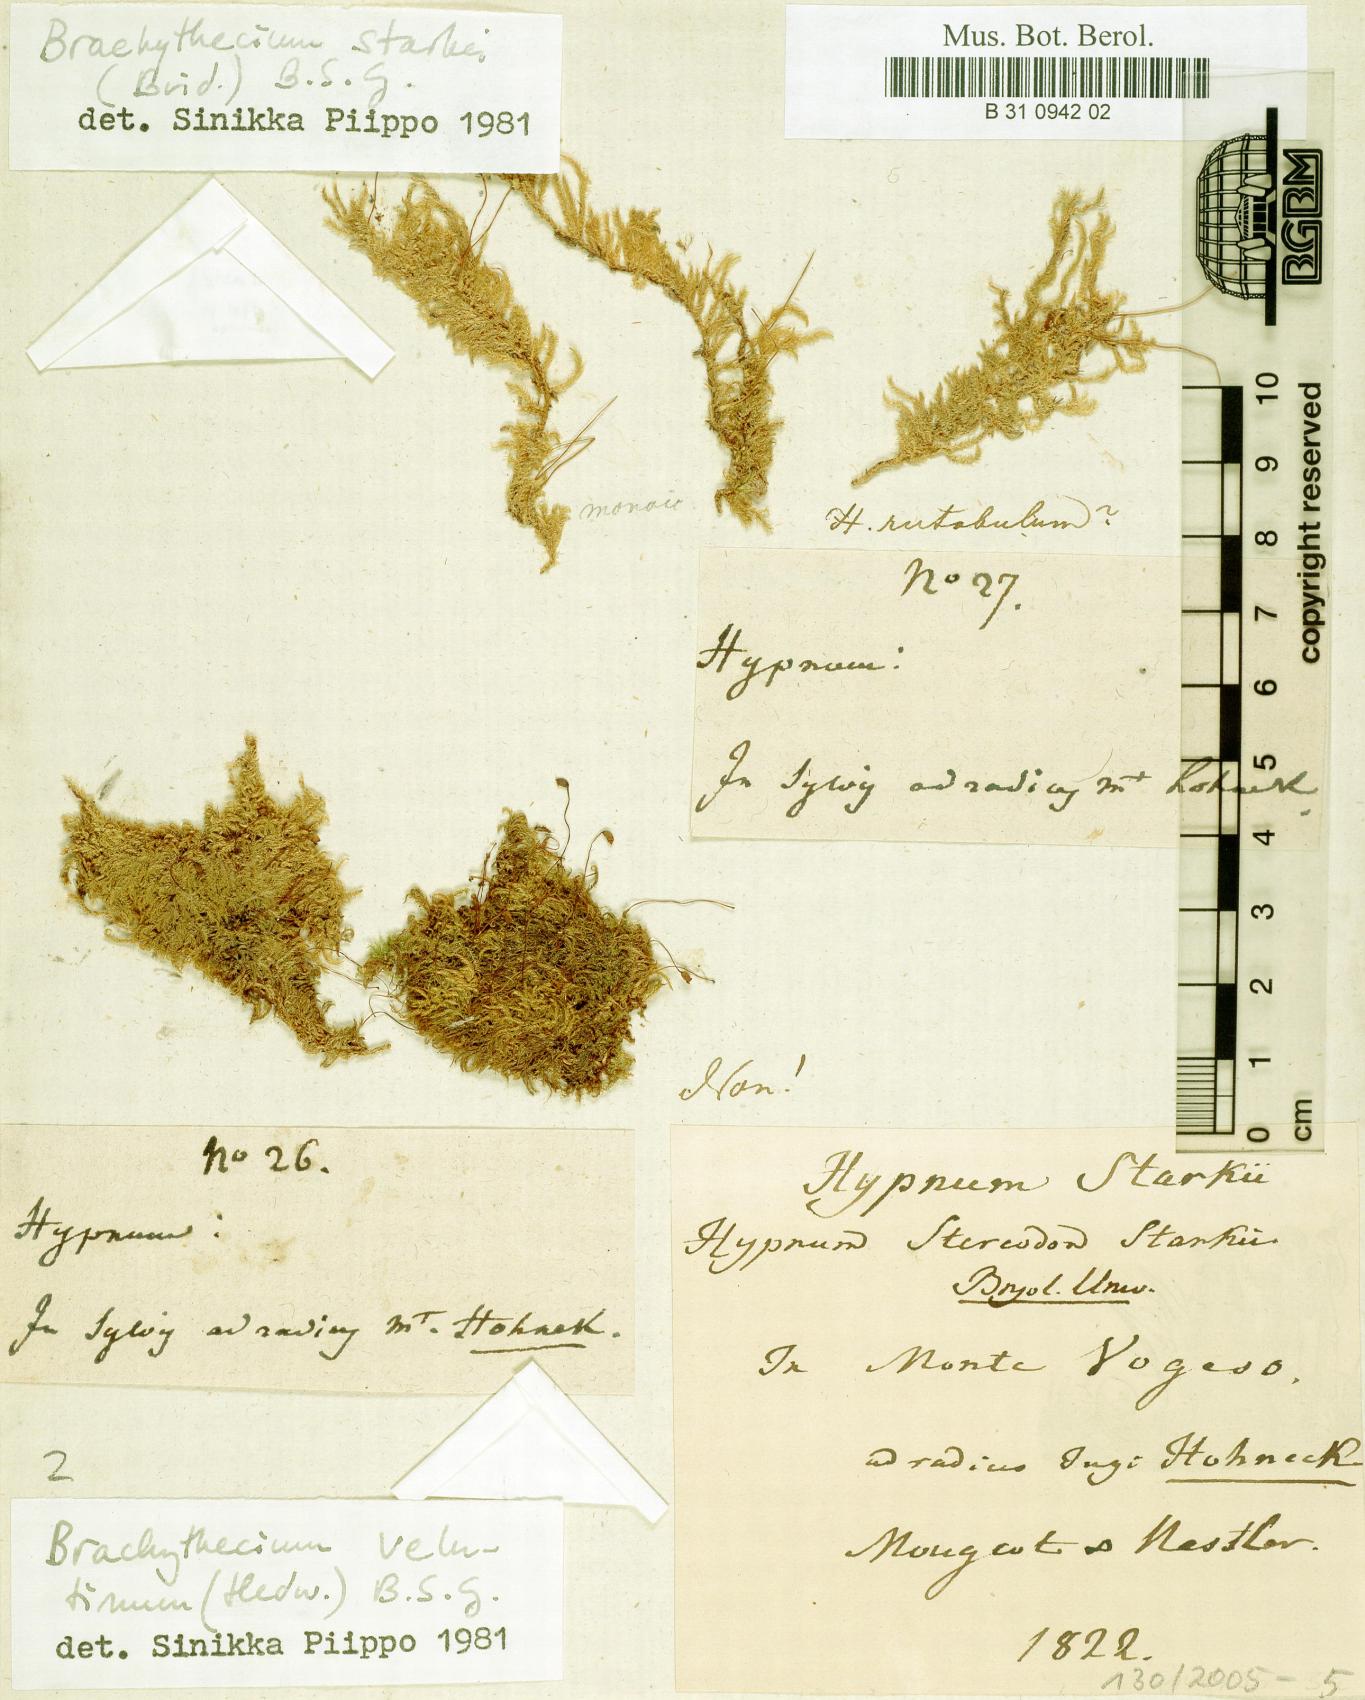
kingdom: Plantae
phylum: Bryophyta
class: Bryopsida
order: Hypnales
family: Brachytheciaceae
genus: Sciuro-hypnum
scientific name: Sciuro-hypnum starkei
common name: Starke's feather-moss
